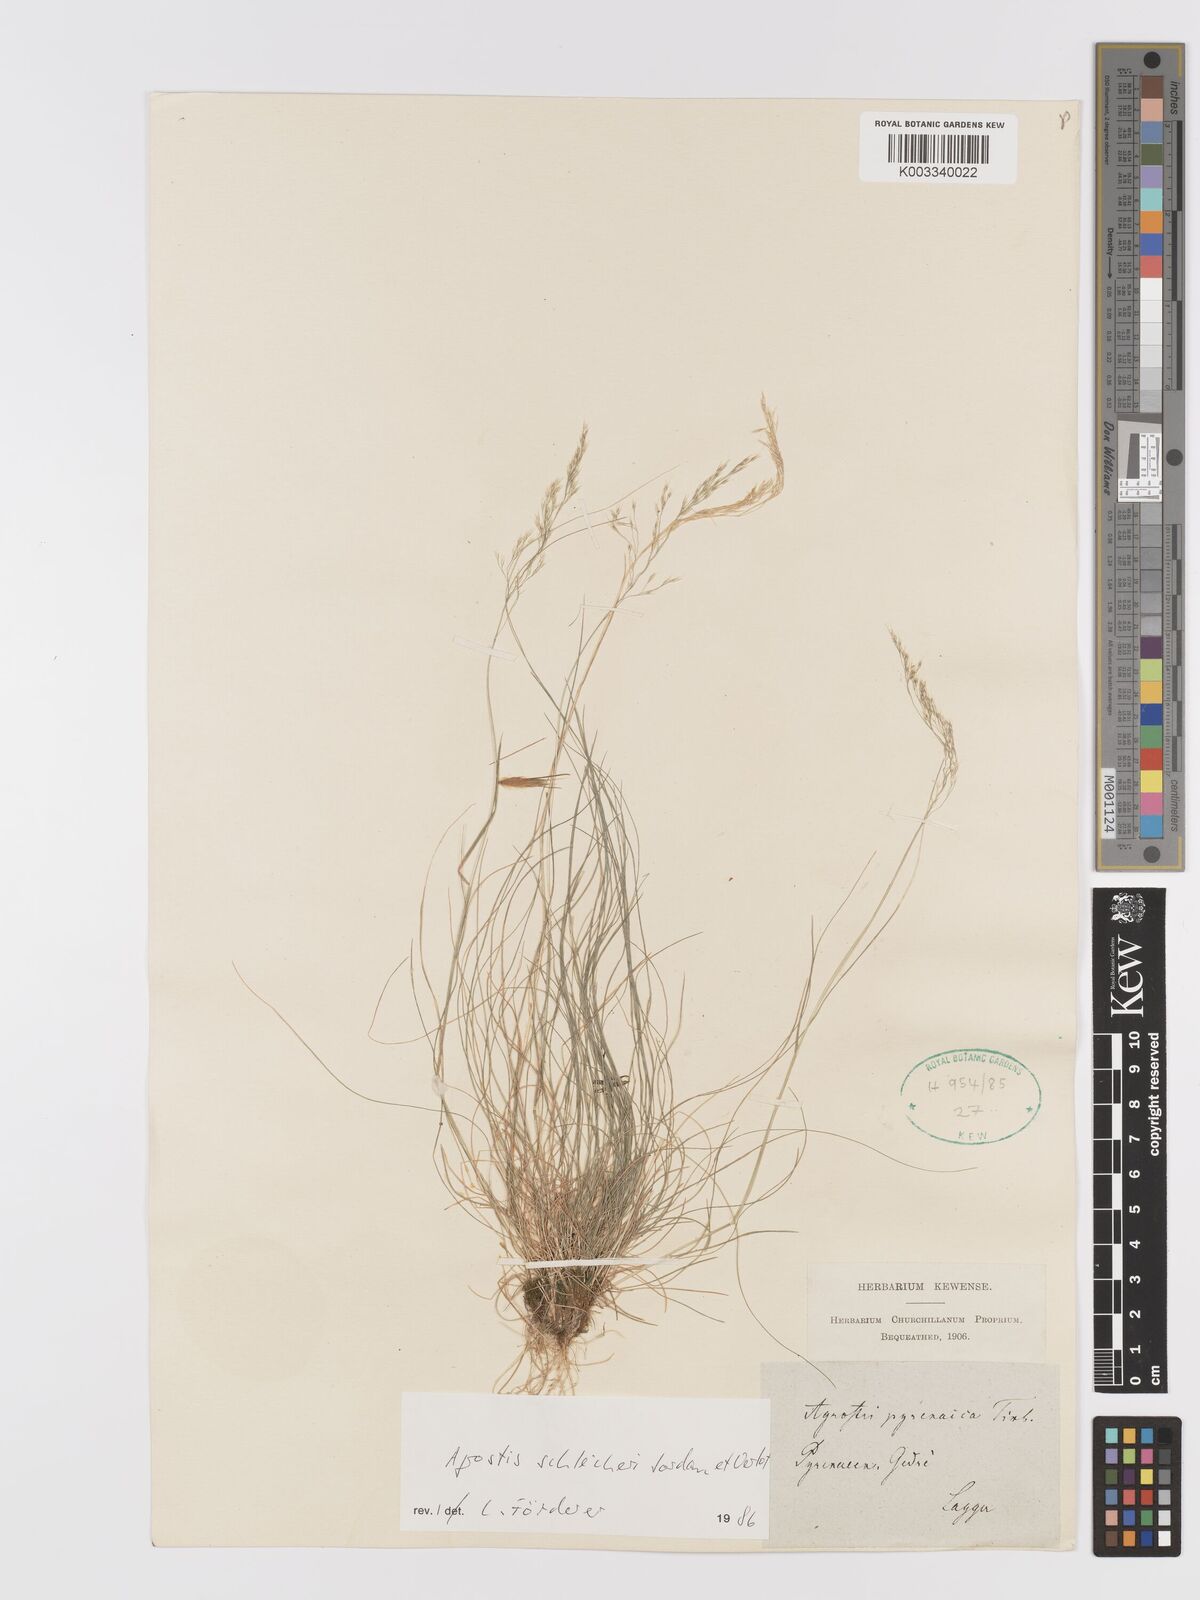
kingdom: Plantae
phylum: Tracheophyta
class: Liliopsida
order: Poales
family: Poaceae
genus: Alpagrostis
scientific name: Alpagrostis schleicheri
